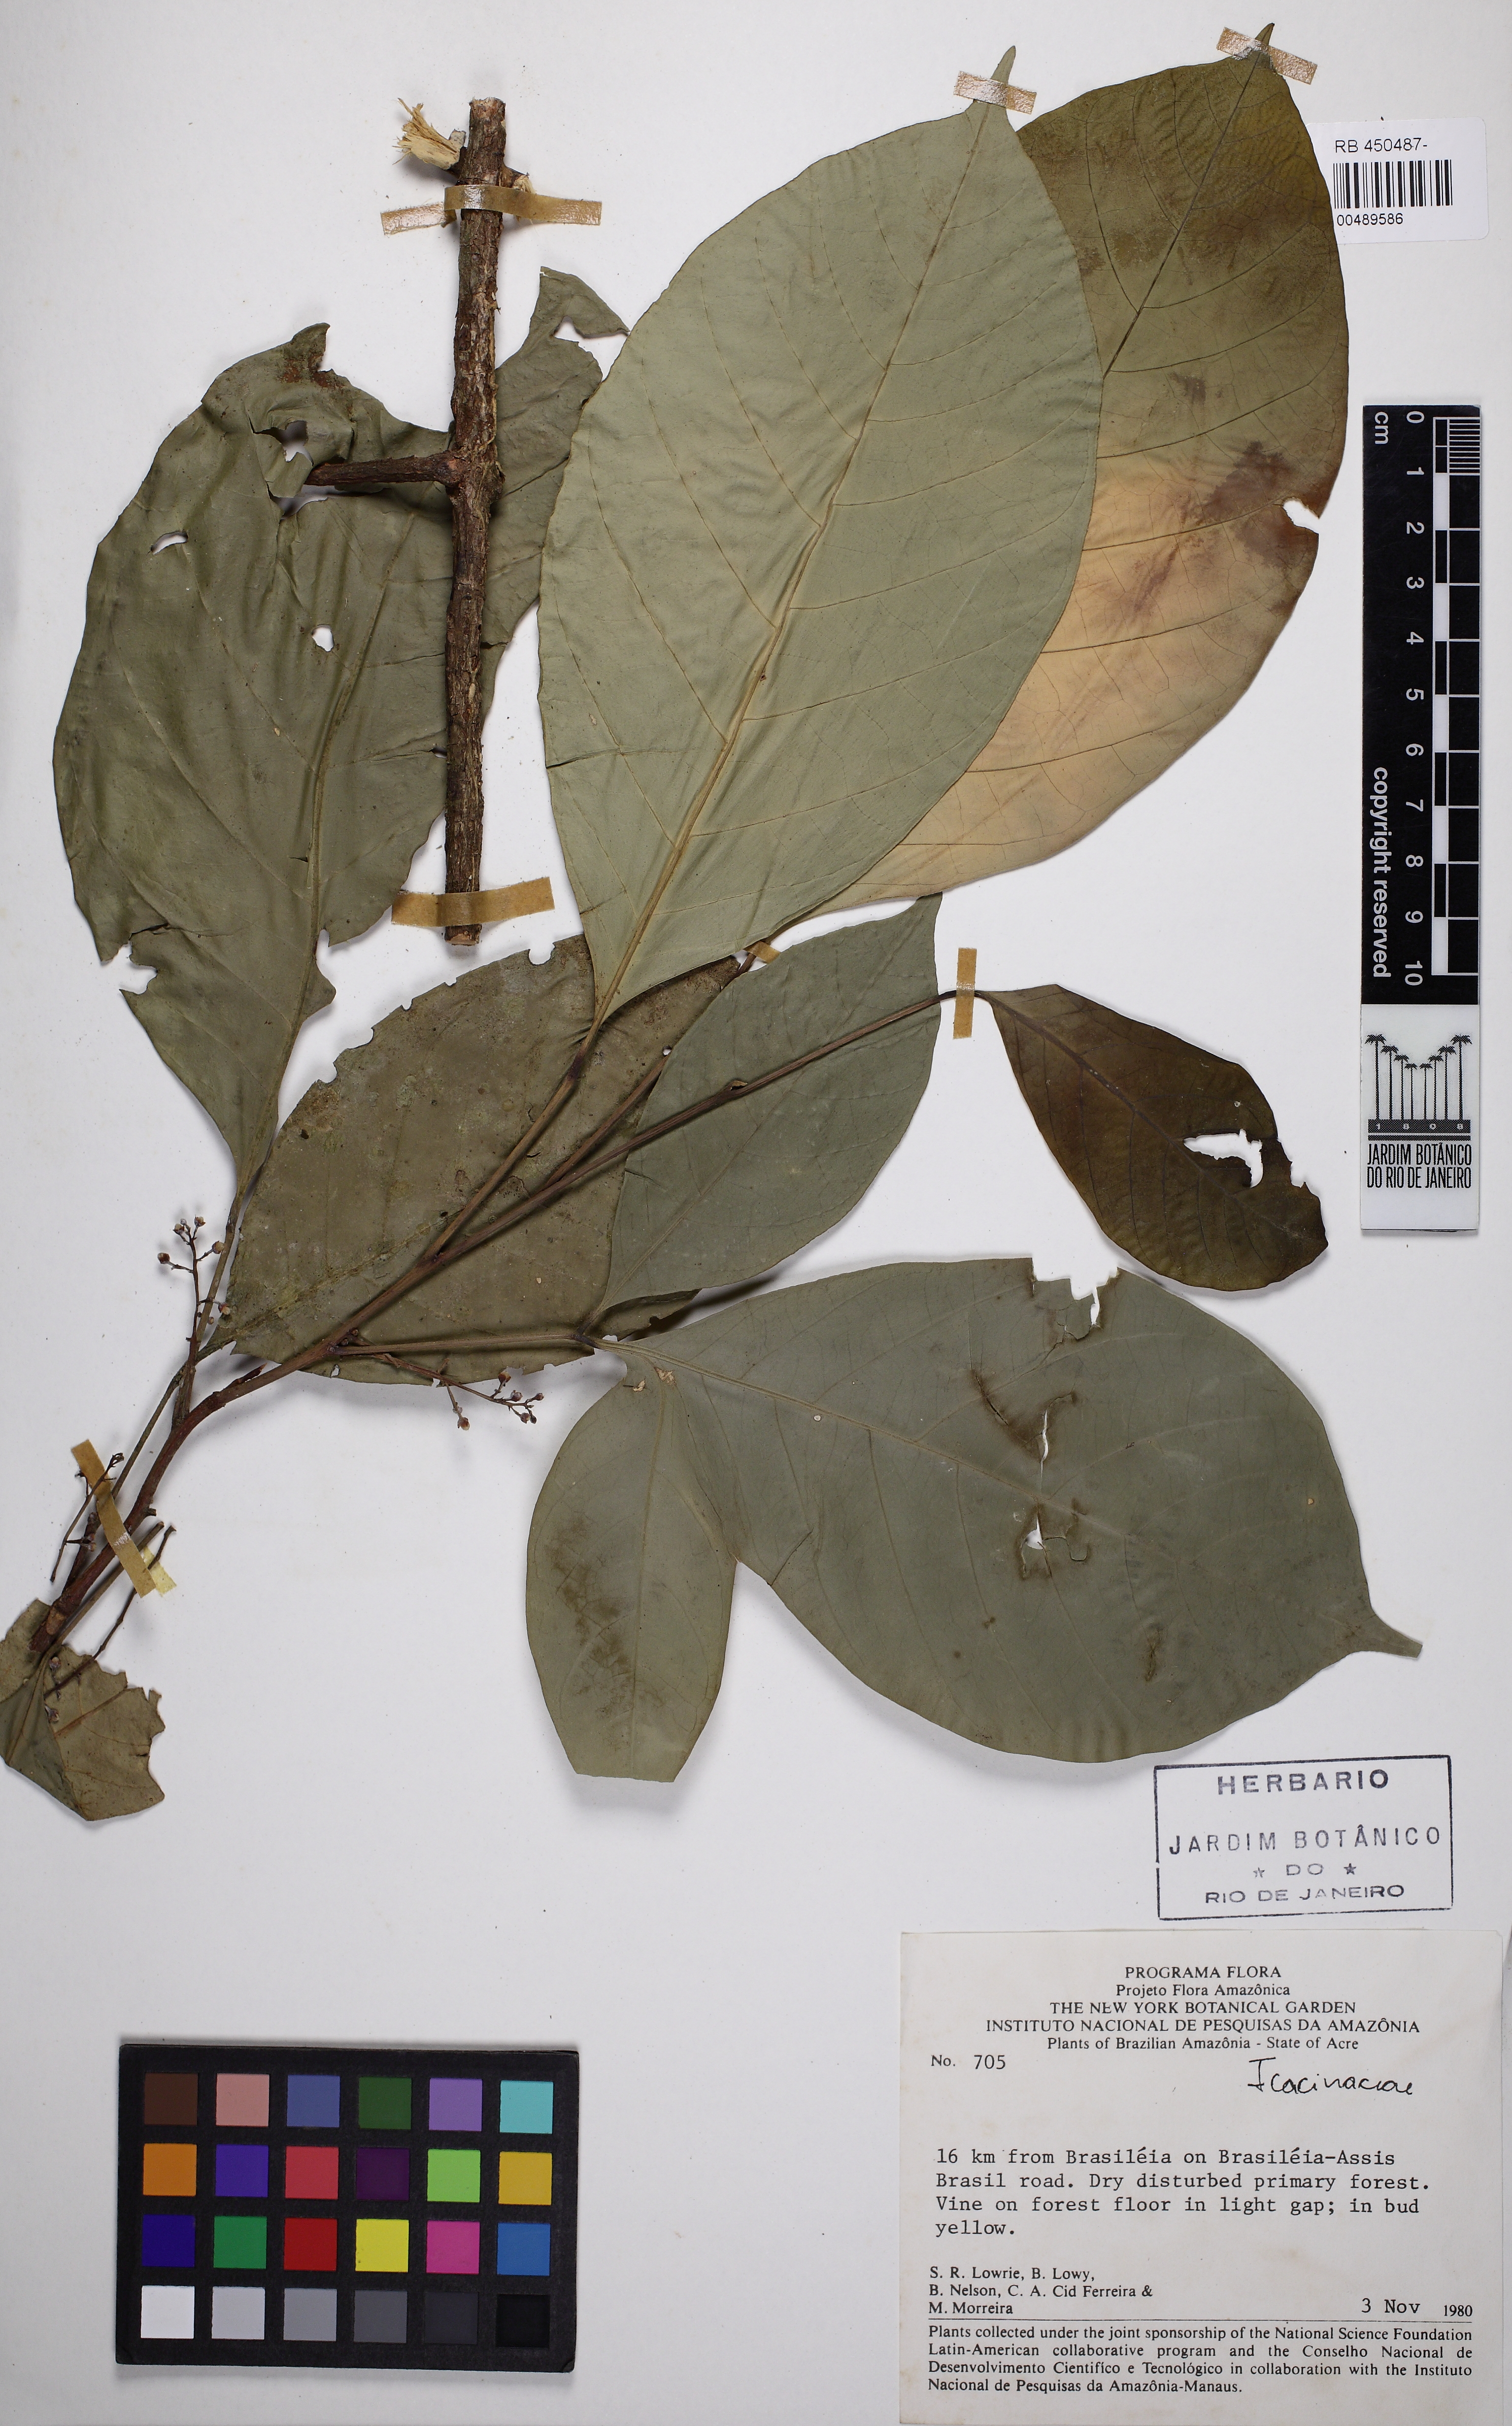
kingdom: Plantae
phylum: Tracheophyta
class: Magnoliopsida
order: Icacinales
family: Icacinaceae
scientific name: Icacinaceae
